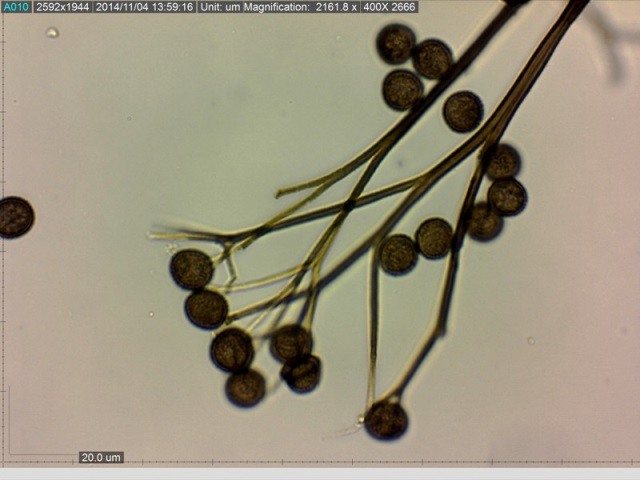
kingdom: Protozoa
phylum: Mycetozoa
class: Myxomycetes
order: Stemonitidales
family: Stemonitidaceae
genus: Lamproderma
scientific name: Lamproderma columbinum
